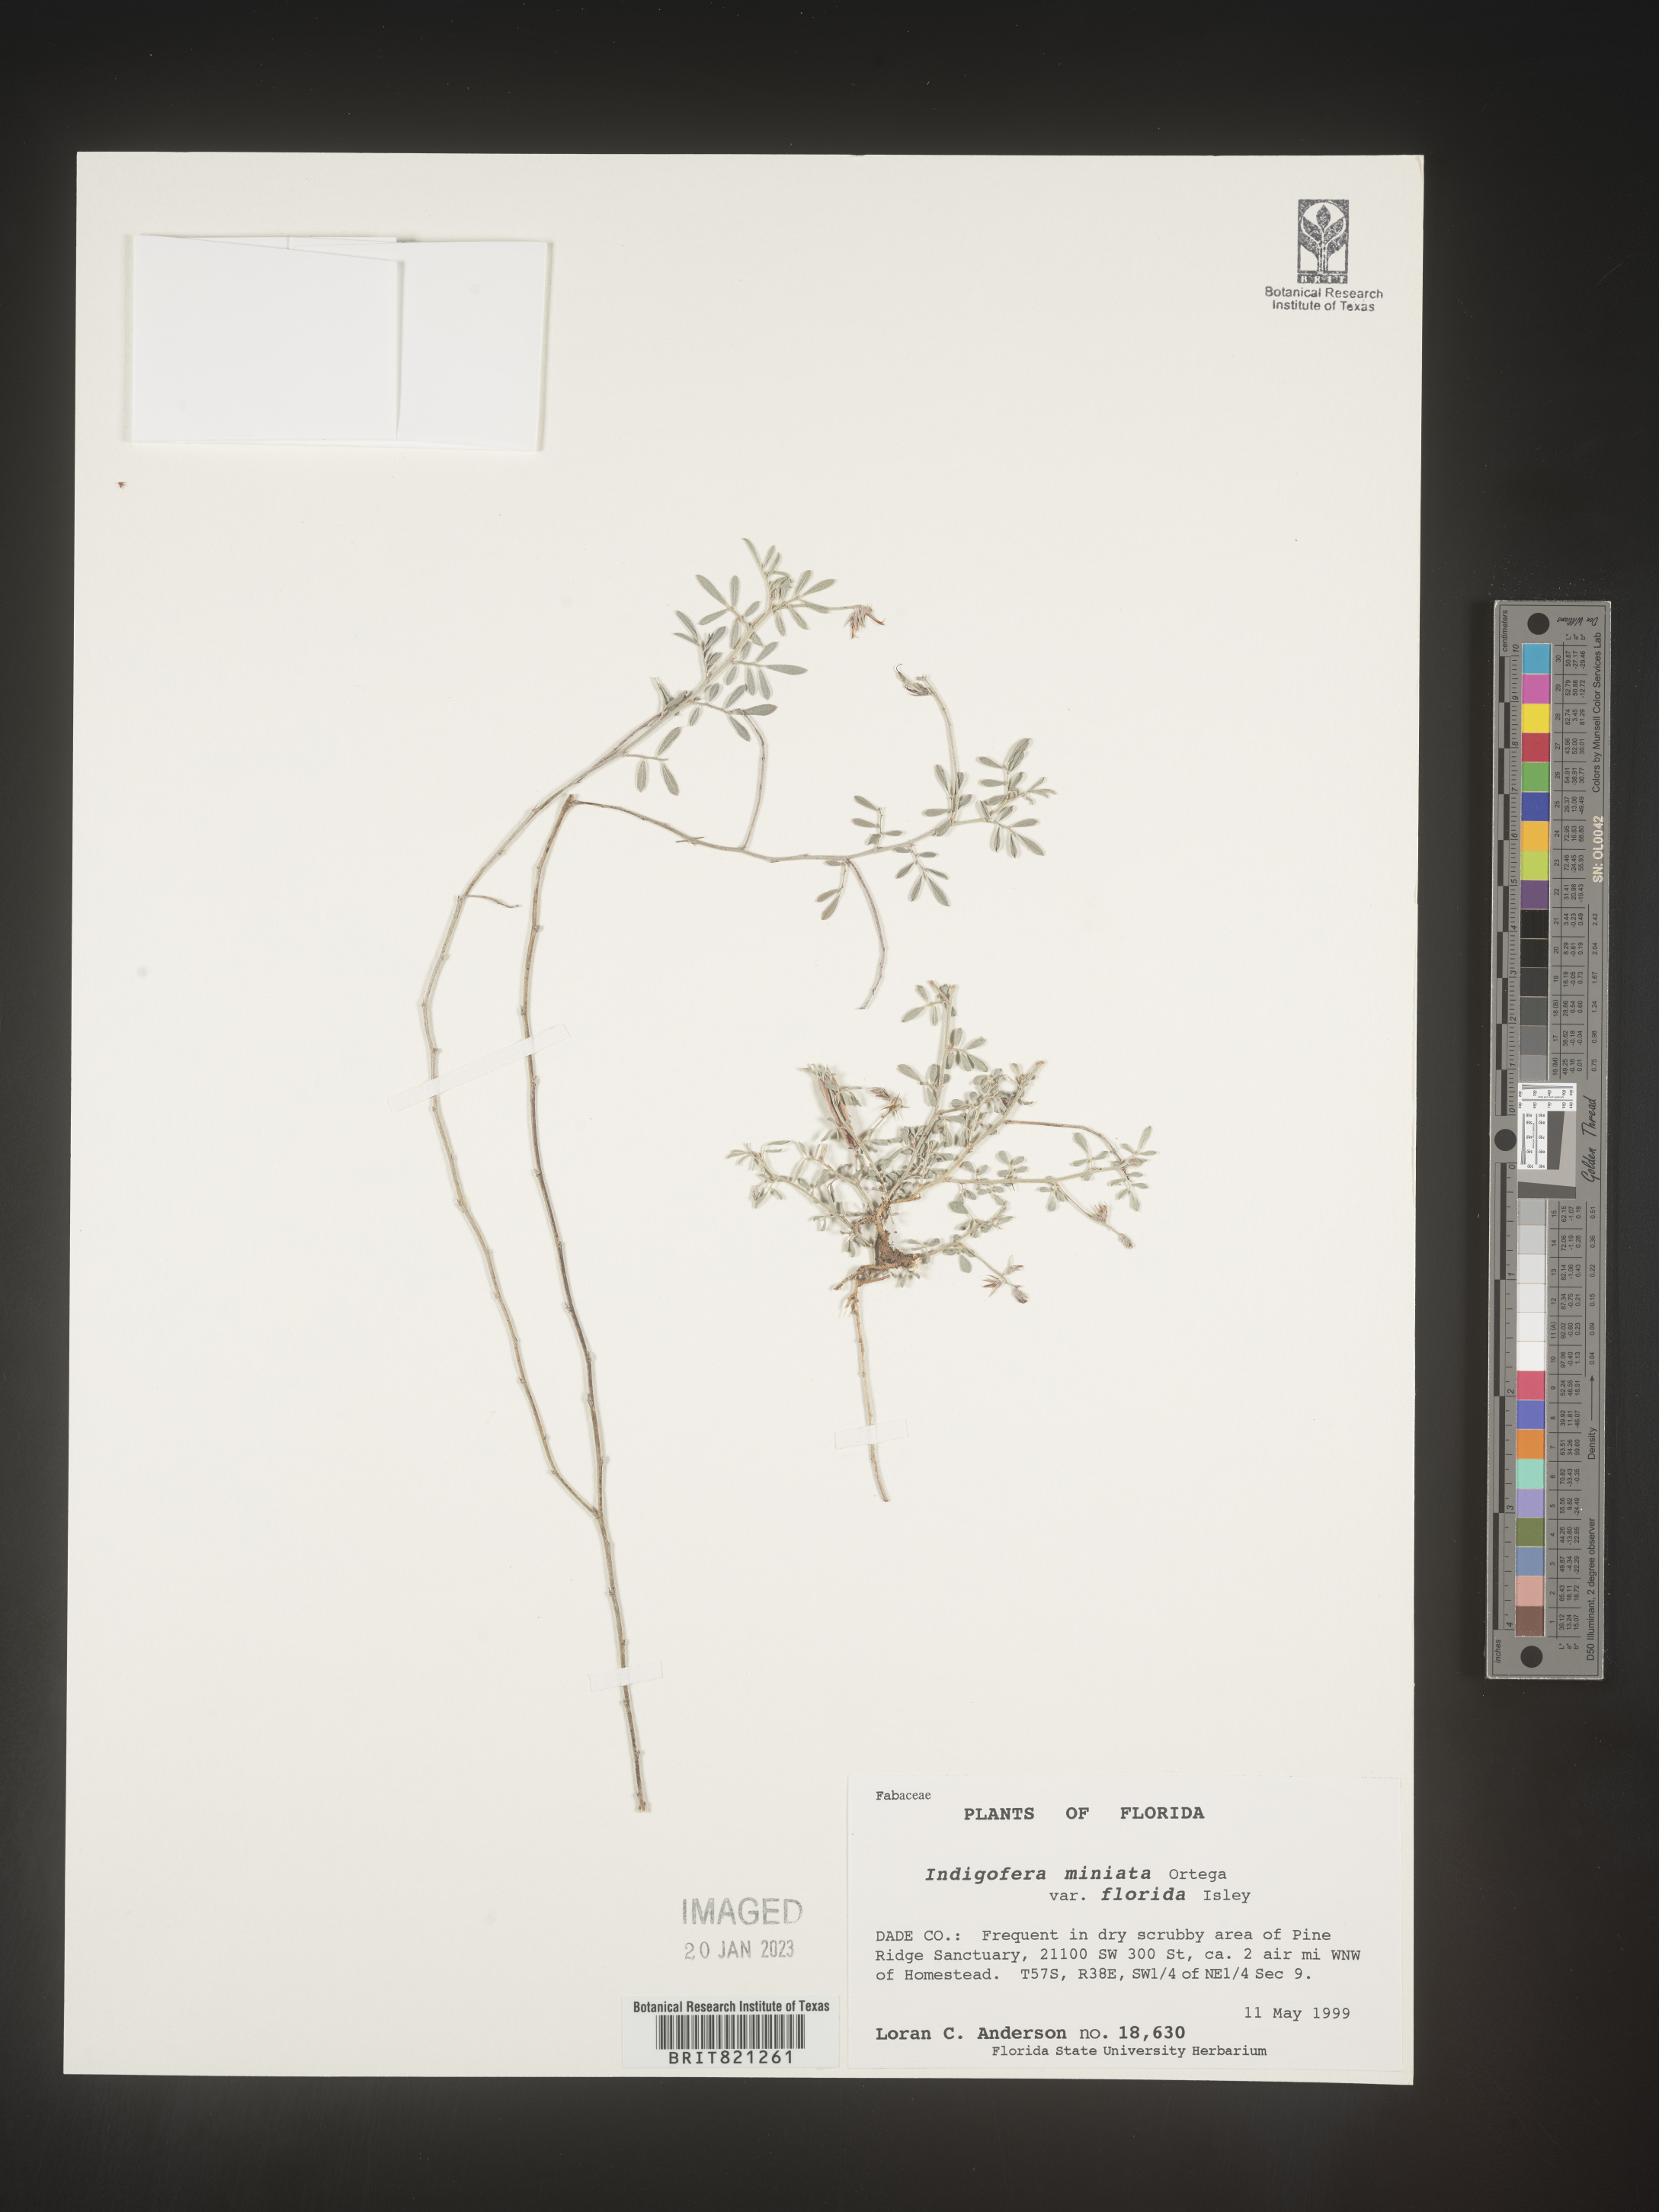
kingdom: Plantae
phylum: Tracheophyta
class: Magnoliopsida
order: Fabales
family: Fabaceae
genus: Indigofera
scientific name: Indigofera miniata
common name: Coast indigo
